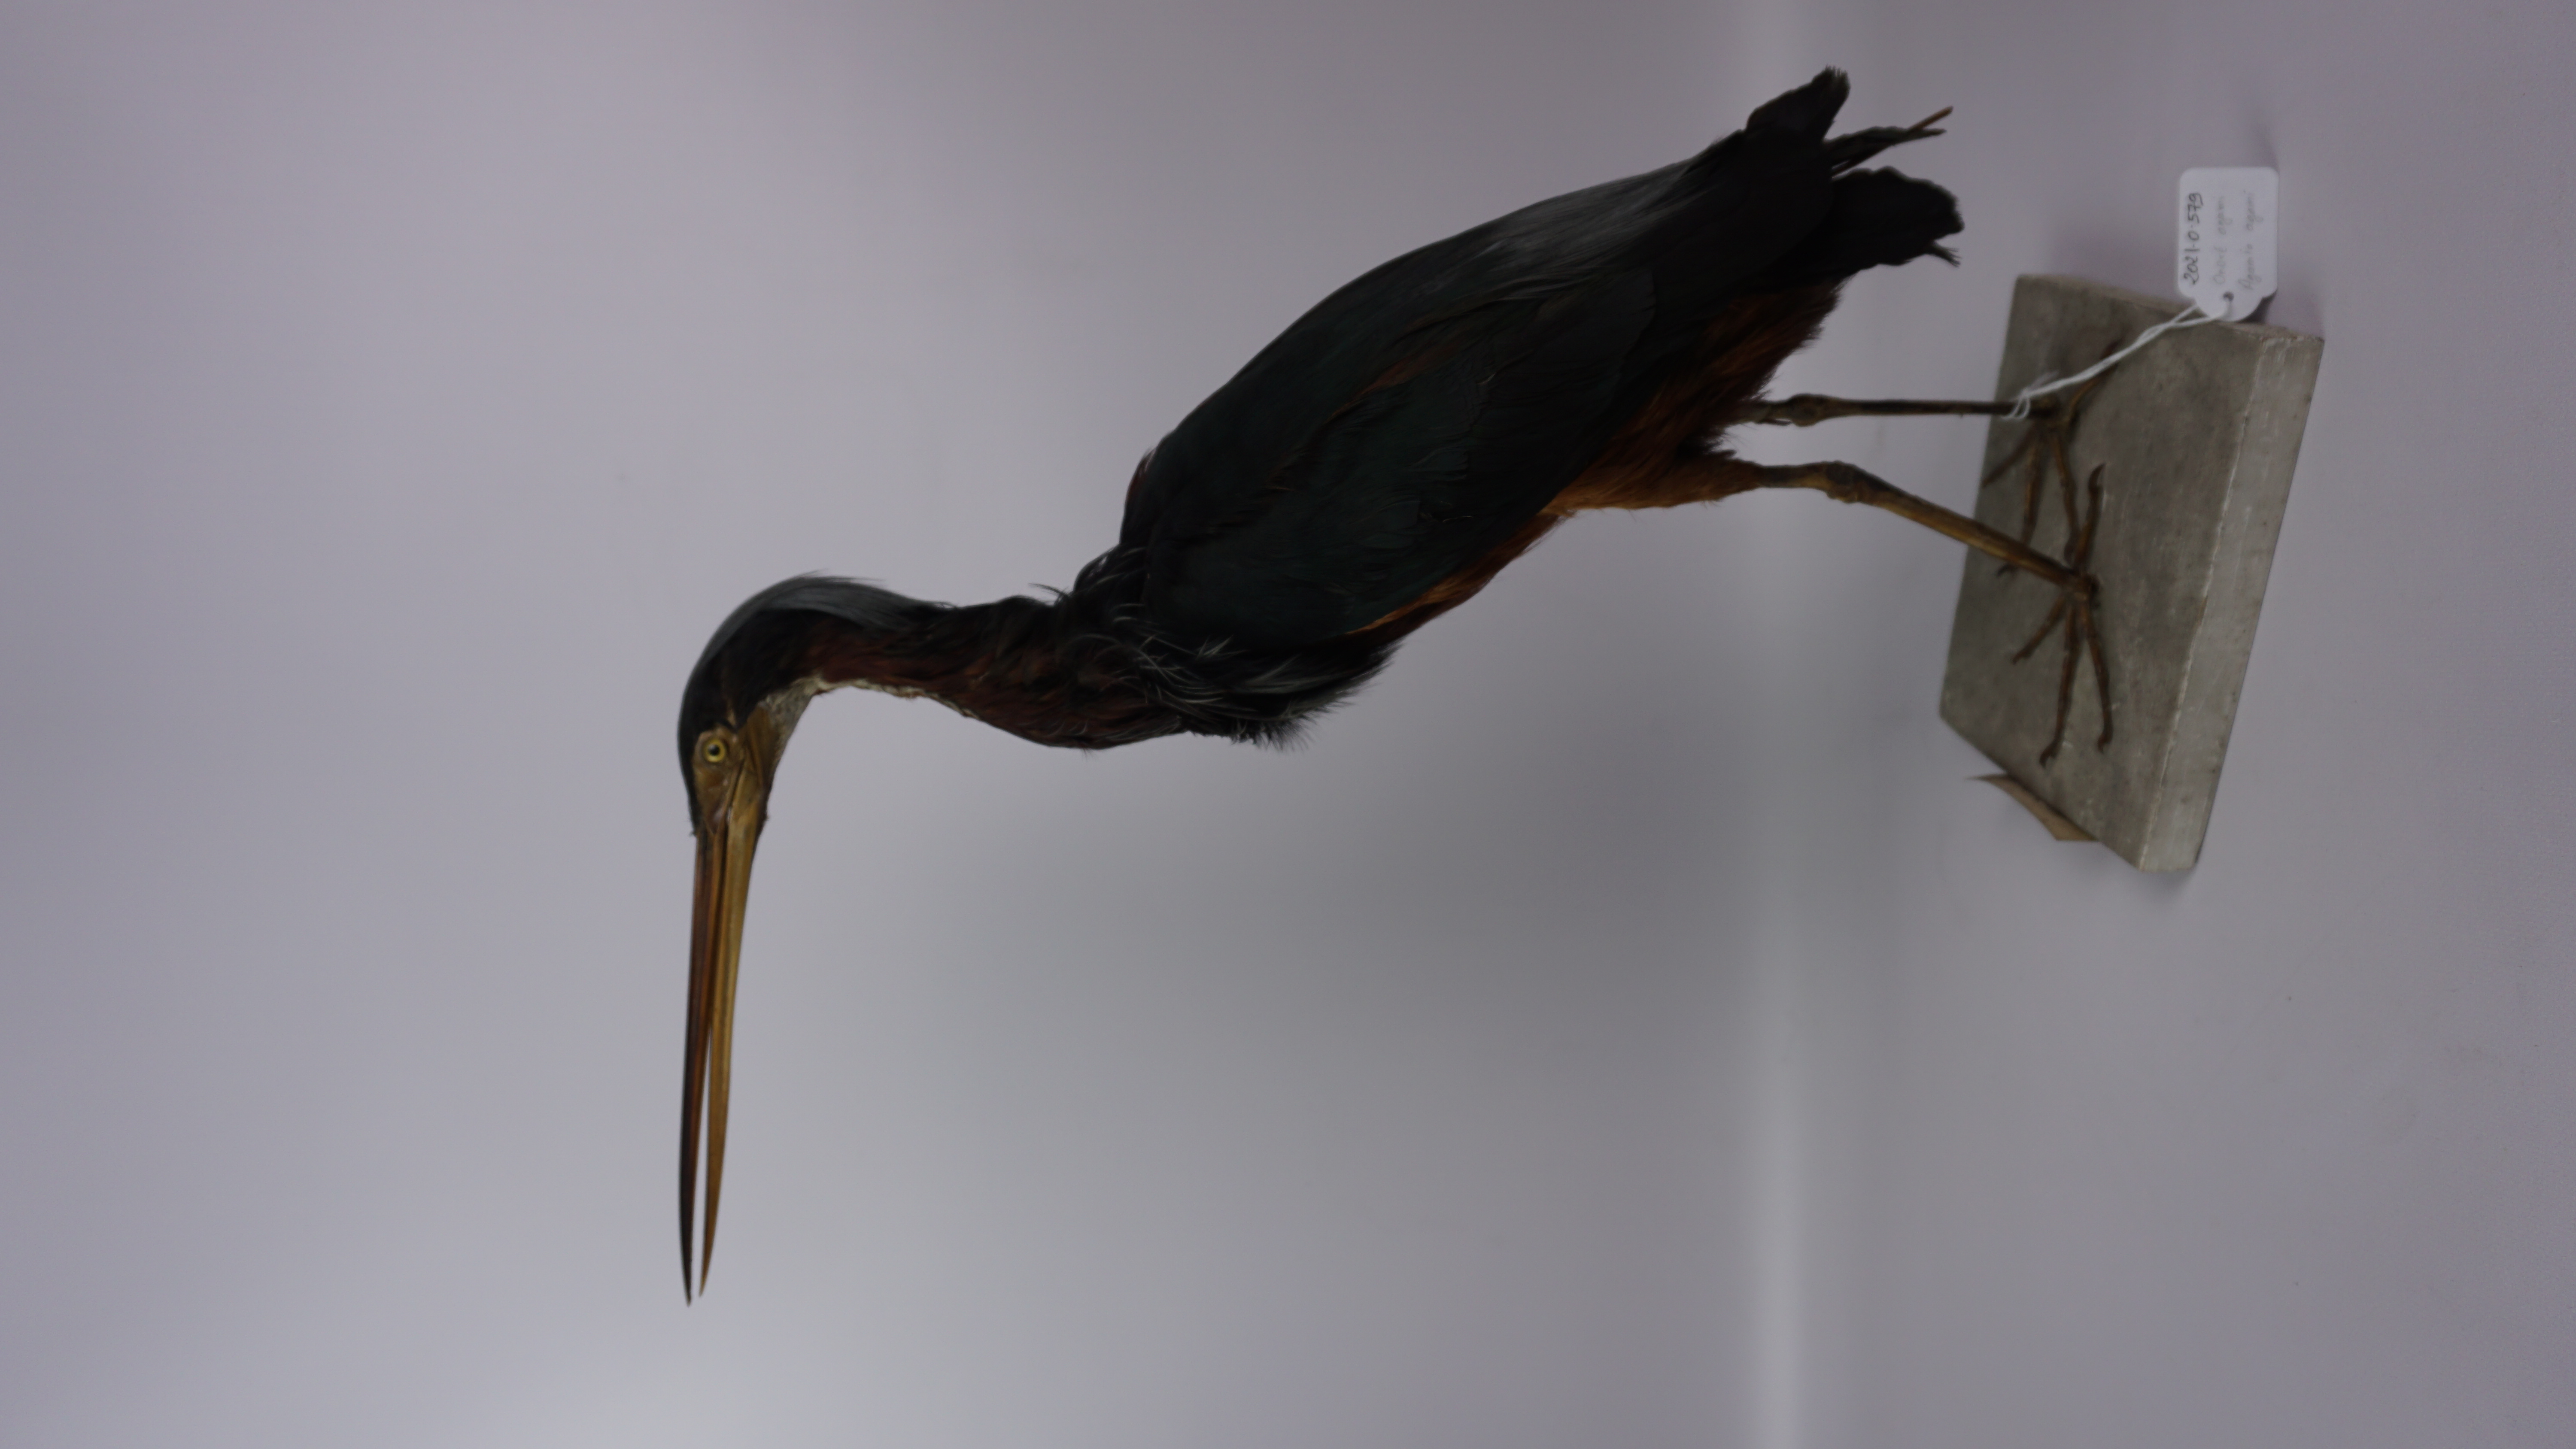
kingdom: Animalia
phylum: Chordata
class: Aves
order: Pelecaniformes
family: Ardeidae
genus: Agamia
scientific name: Agamia agami
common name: Agami heron
